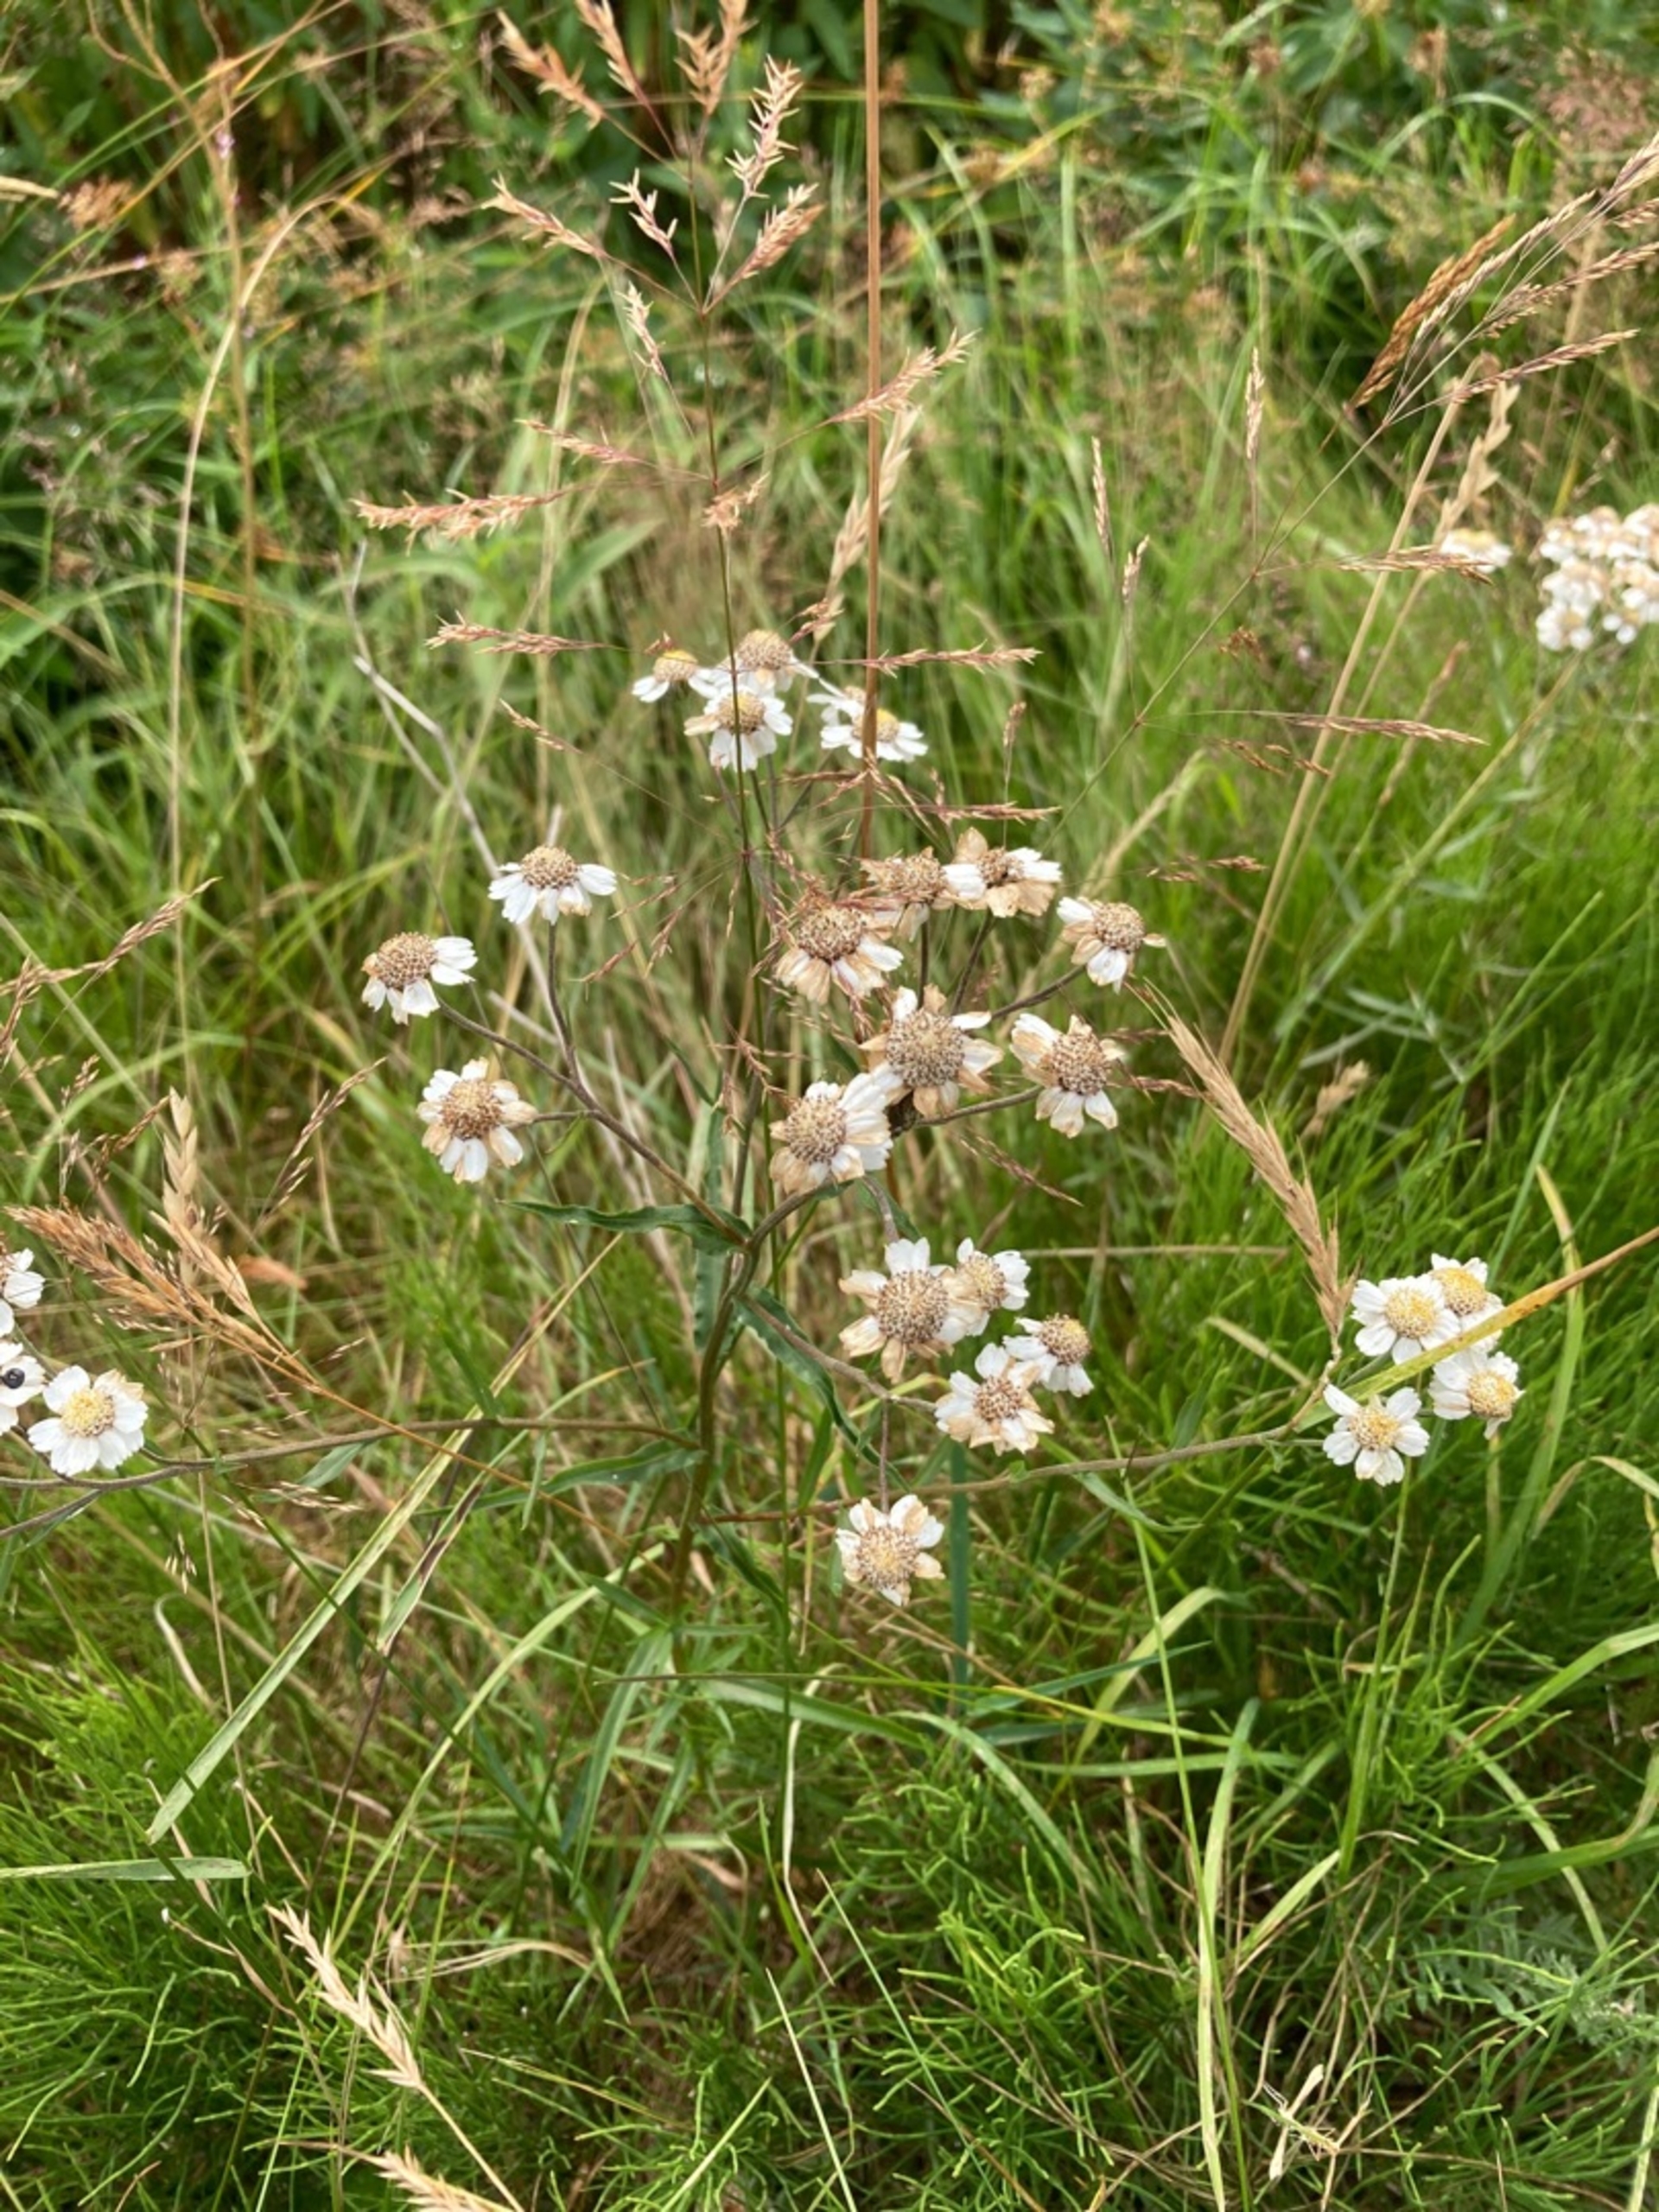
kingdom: Plantae
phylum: Tracheophyta
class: Magnoliopsida
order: Asterales
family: Asteraceae
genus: Achillea
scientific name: Achillea ptarmica
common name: Nyse-røllike
